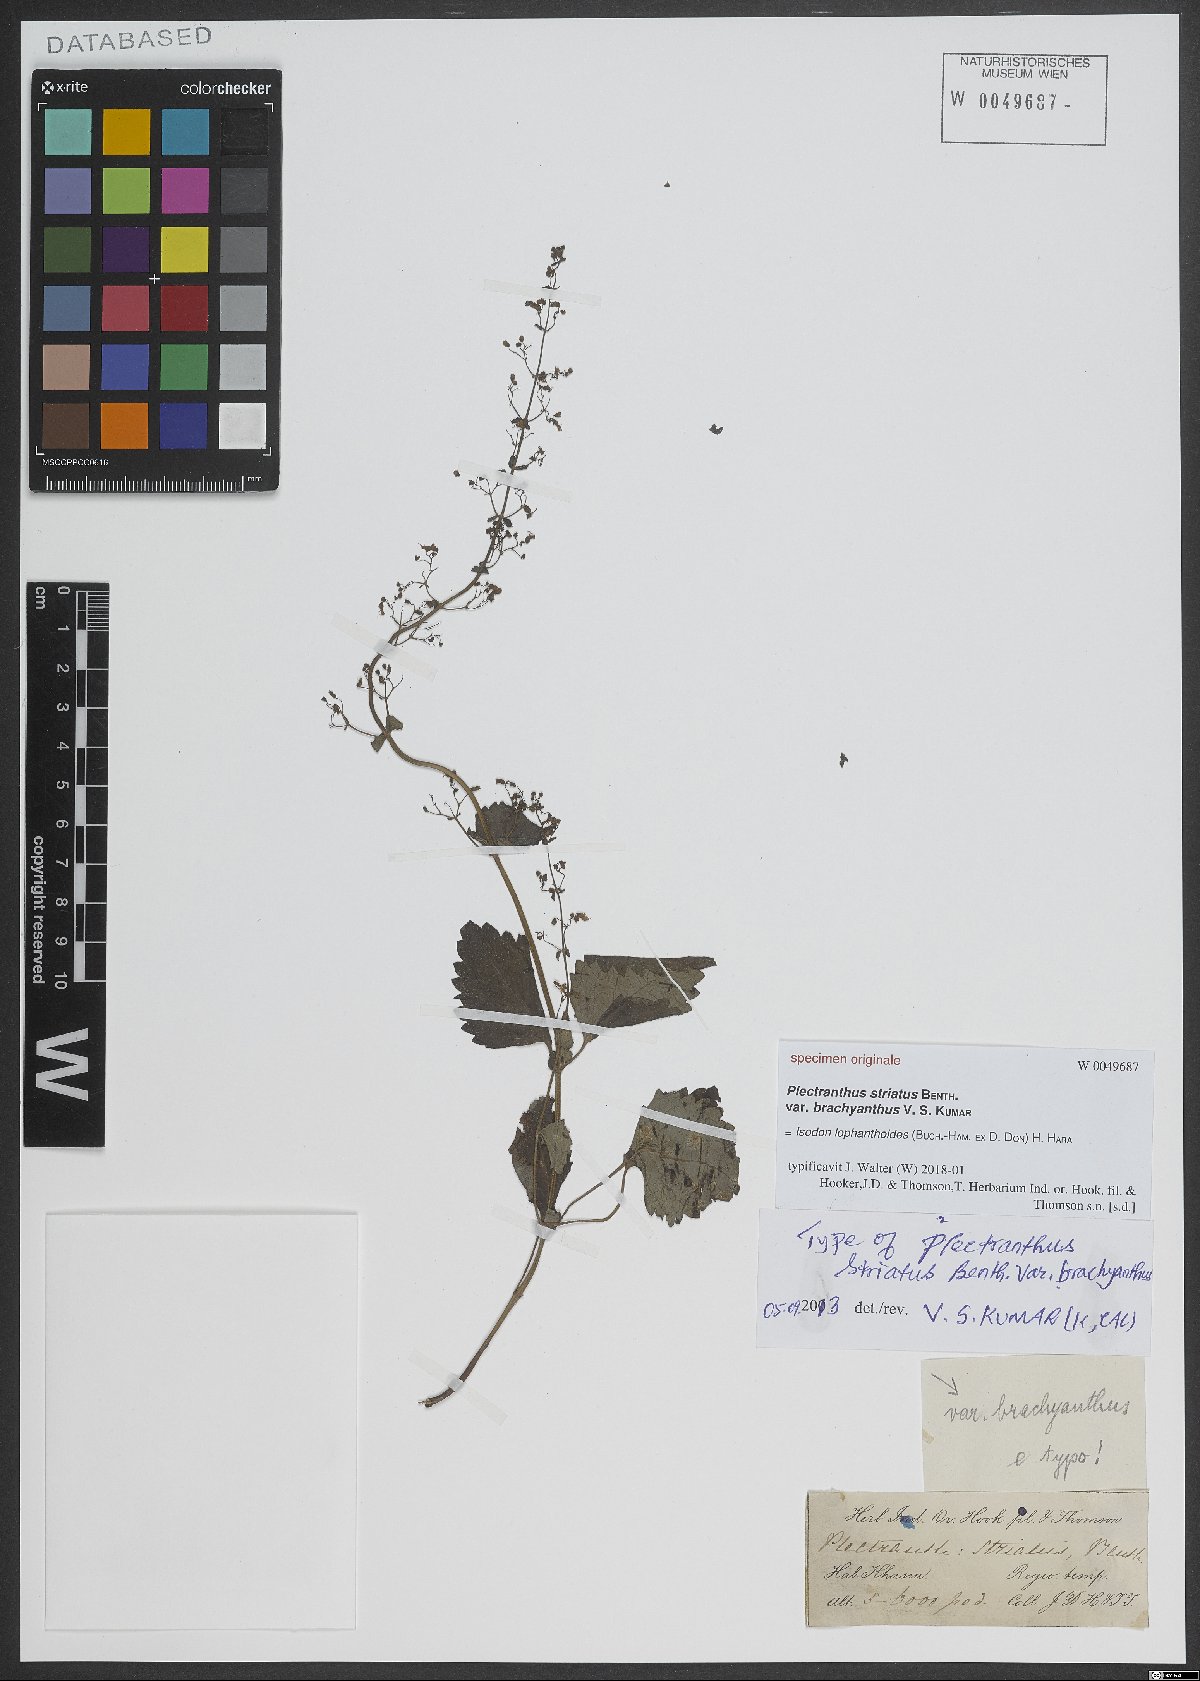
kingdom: Plantae
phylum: Tracheophyta
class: Magnoliopsida
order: Lamiales
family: Lamiaceae
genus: Isodon
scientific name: Isodon lophanthoides
